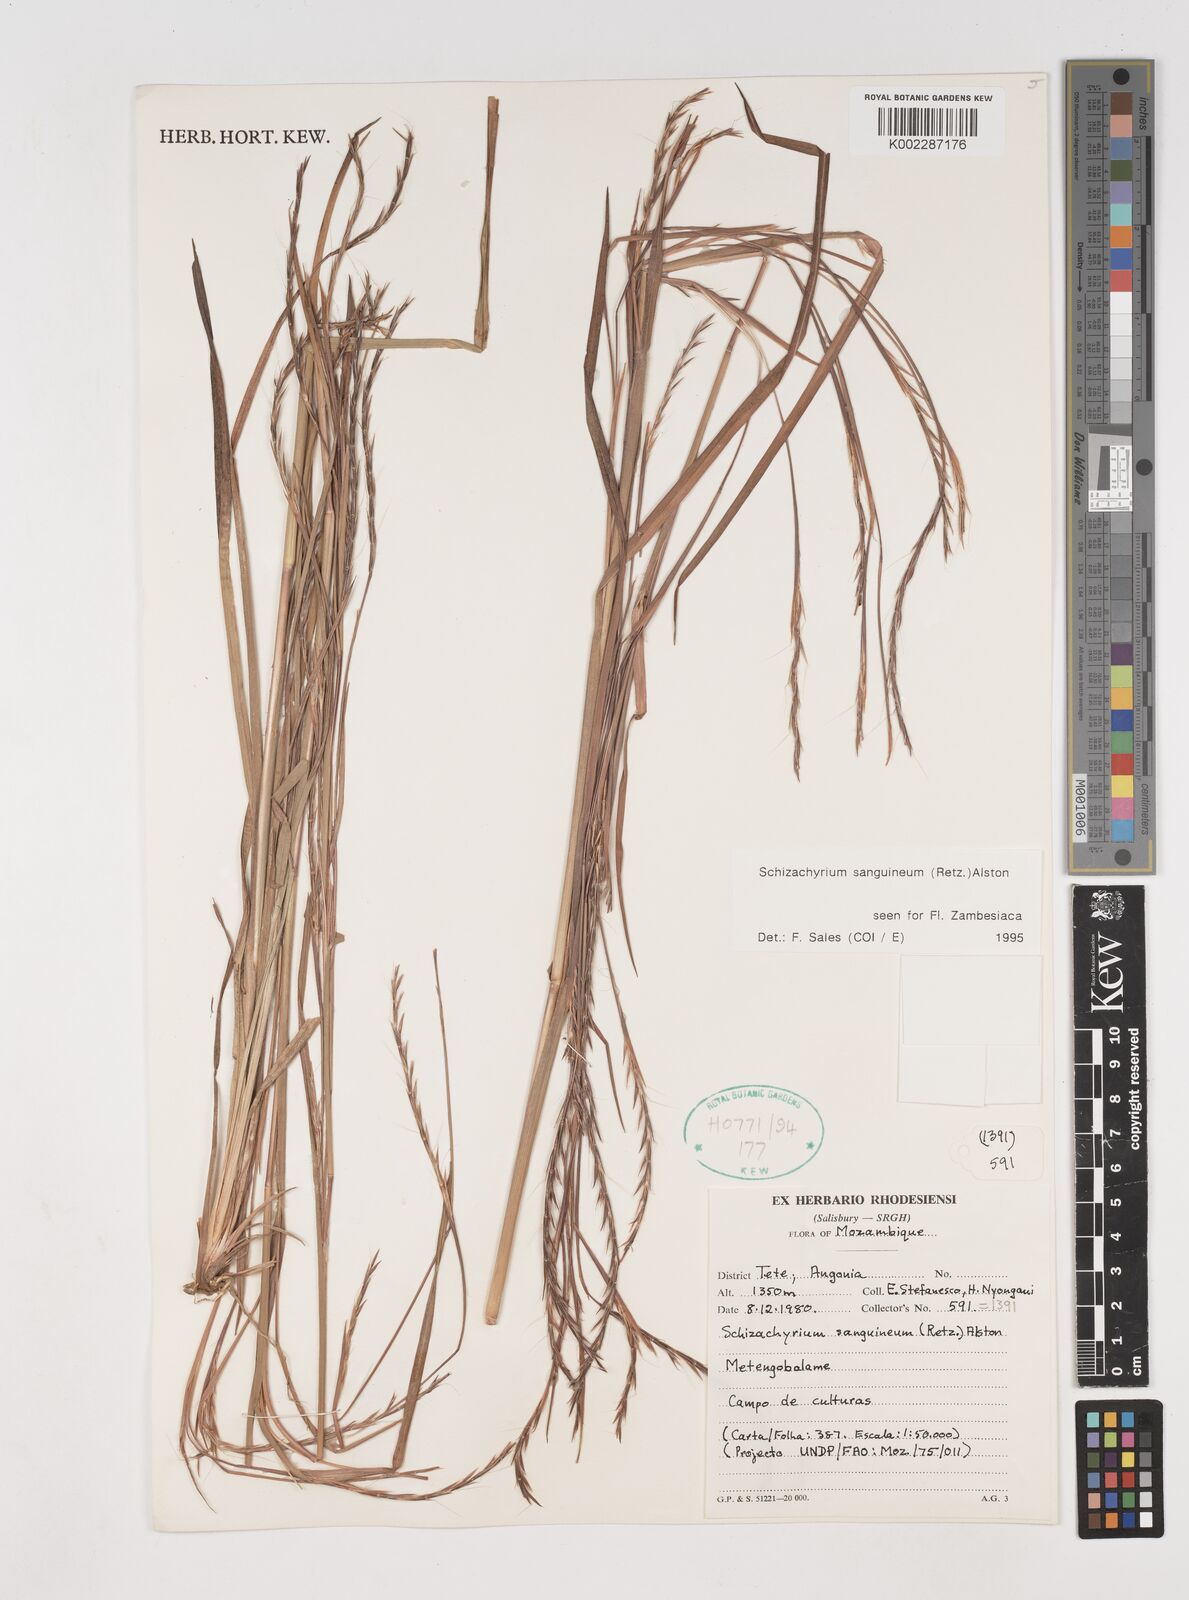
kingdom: Plantae
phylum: Tracheophyta
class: Liliopsida
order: Poales
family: Poaceae
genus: Schizachyrium
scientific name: Schizachyrium sanguineum
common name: Crimson bluestem
